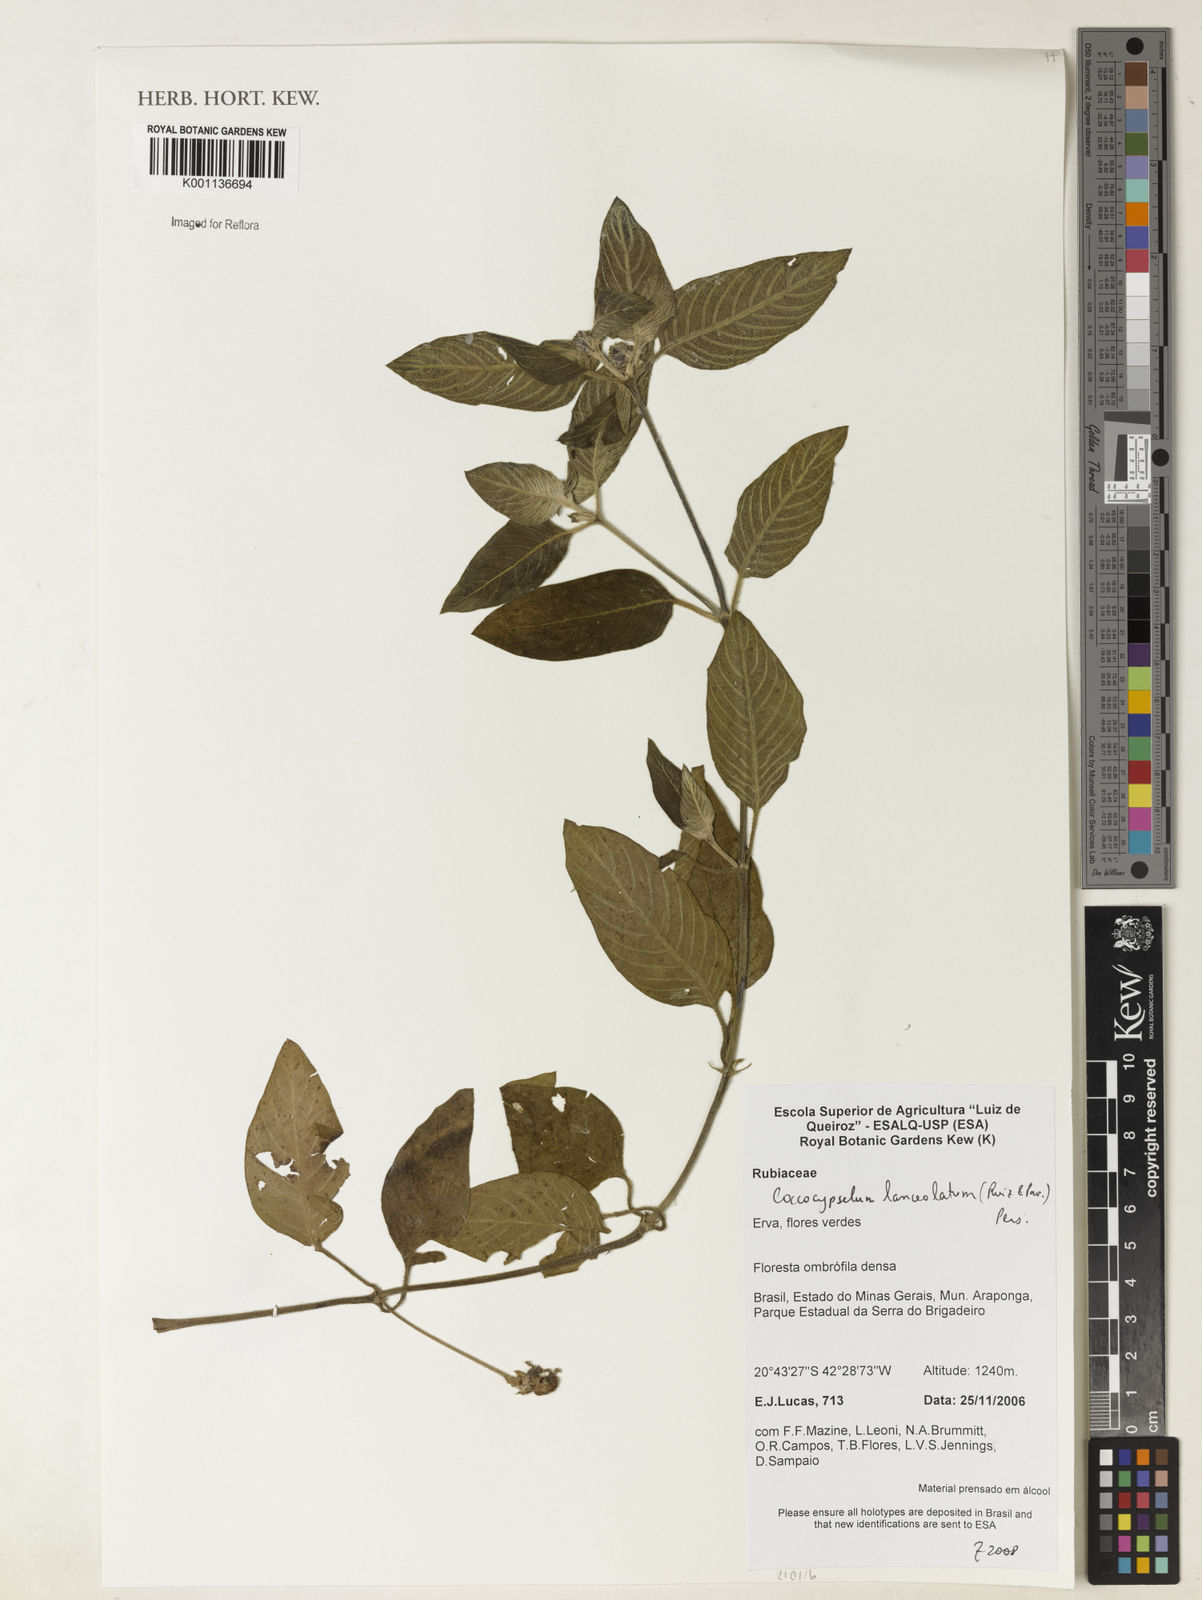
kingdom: Plantae
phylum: Tracheophyta
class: Magnoliopsida
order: Gentianales
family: Rubiaceae
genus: Coccocypselum
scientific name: Coccocypselum lanceolatum
